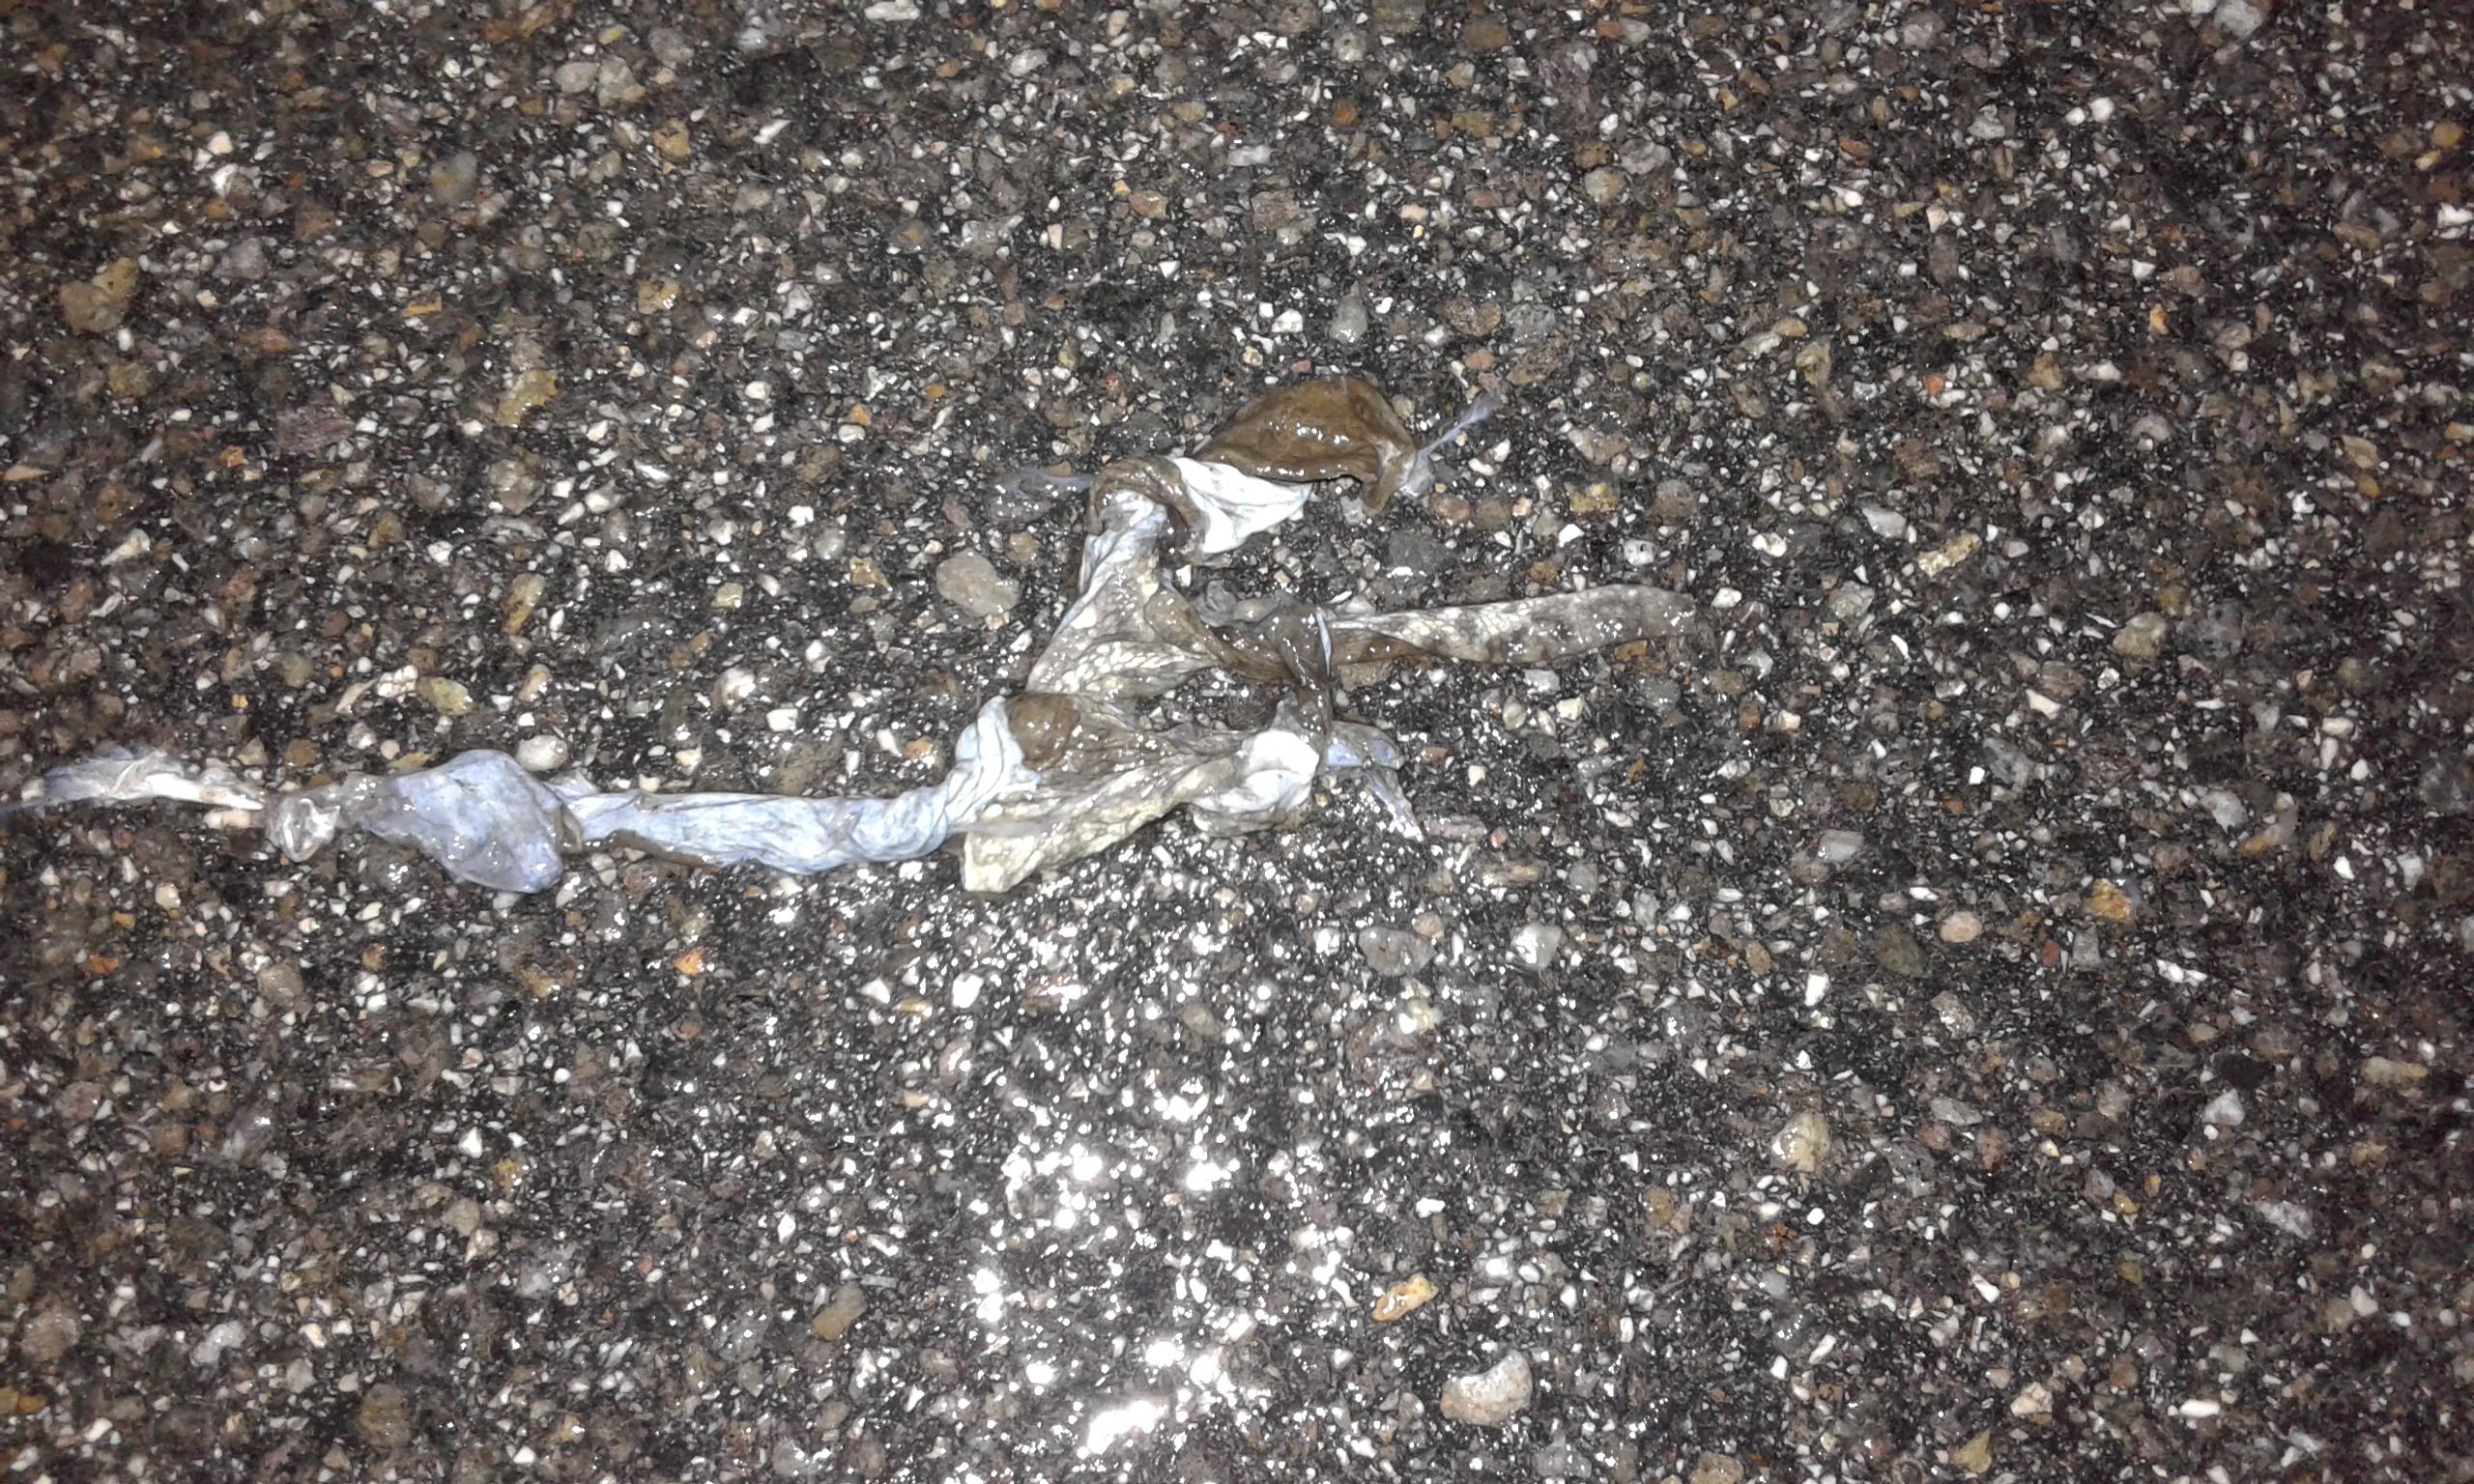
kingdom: Animalia
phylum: Chordata
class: Amphibia
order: Anura
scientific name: Anura
